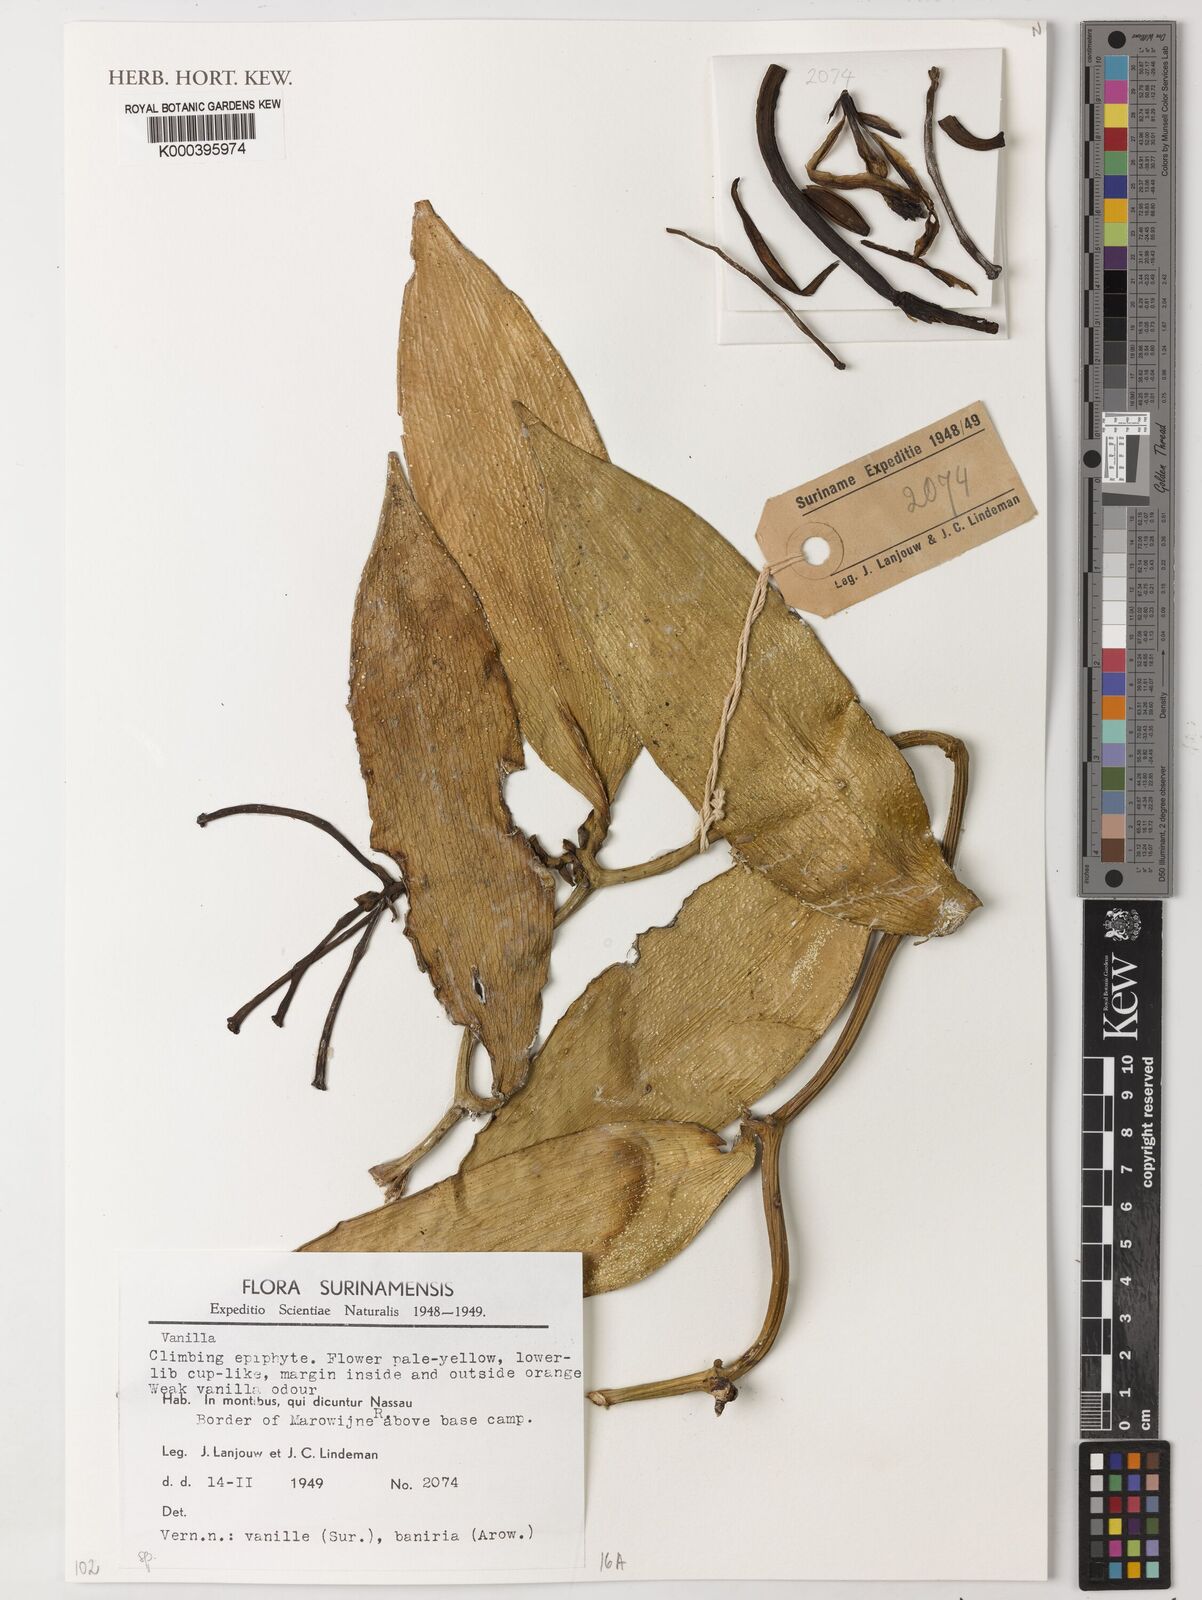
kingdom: Plantae
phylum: Tracheophyta
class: Liliopsida
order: Asparagales
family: Orchidaceae
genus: Vanilla
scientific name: Vanilla hostmannii
